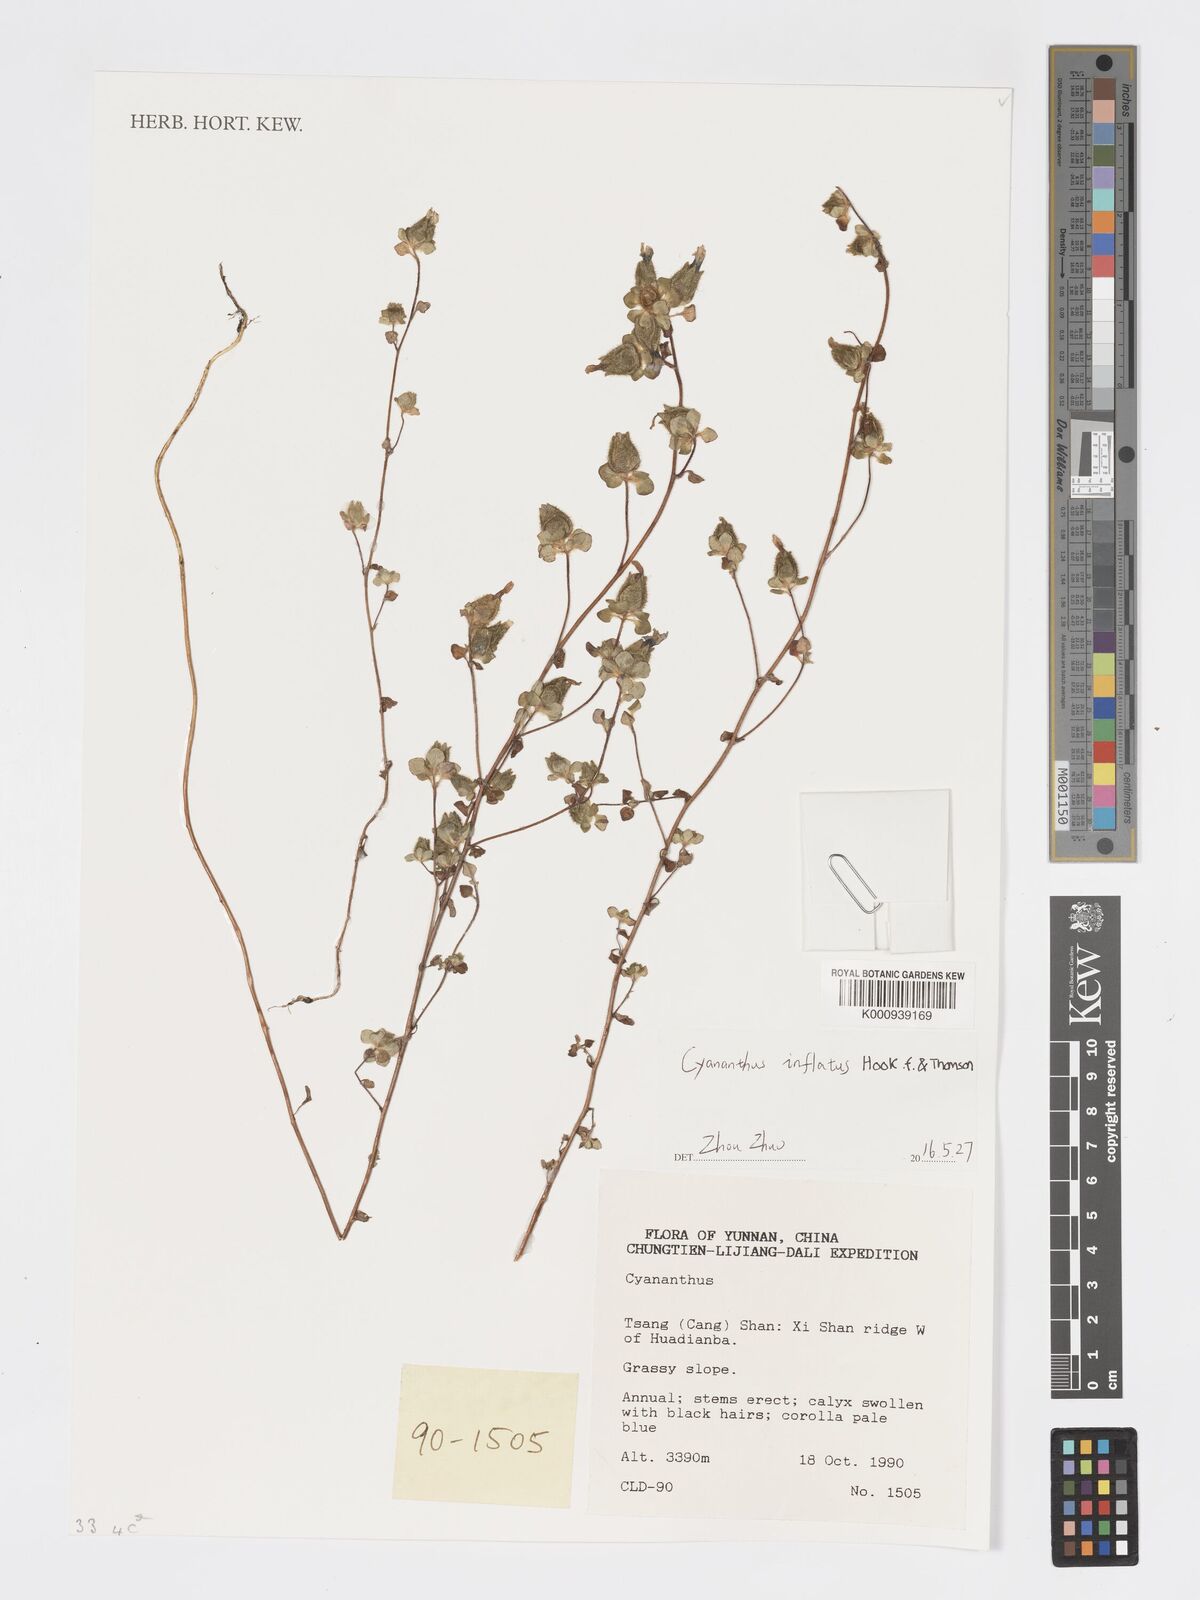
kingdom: Plantae
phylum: Tracheophyta
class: Magnoliopsida
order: Asterales
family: Campanulaceae
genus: Cyananthus
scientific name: Cyananthus inflatus
